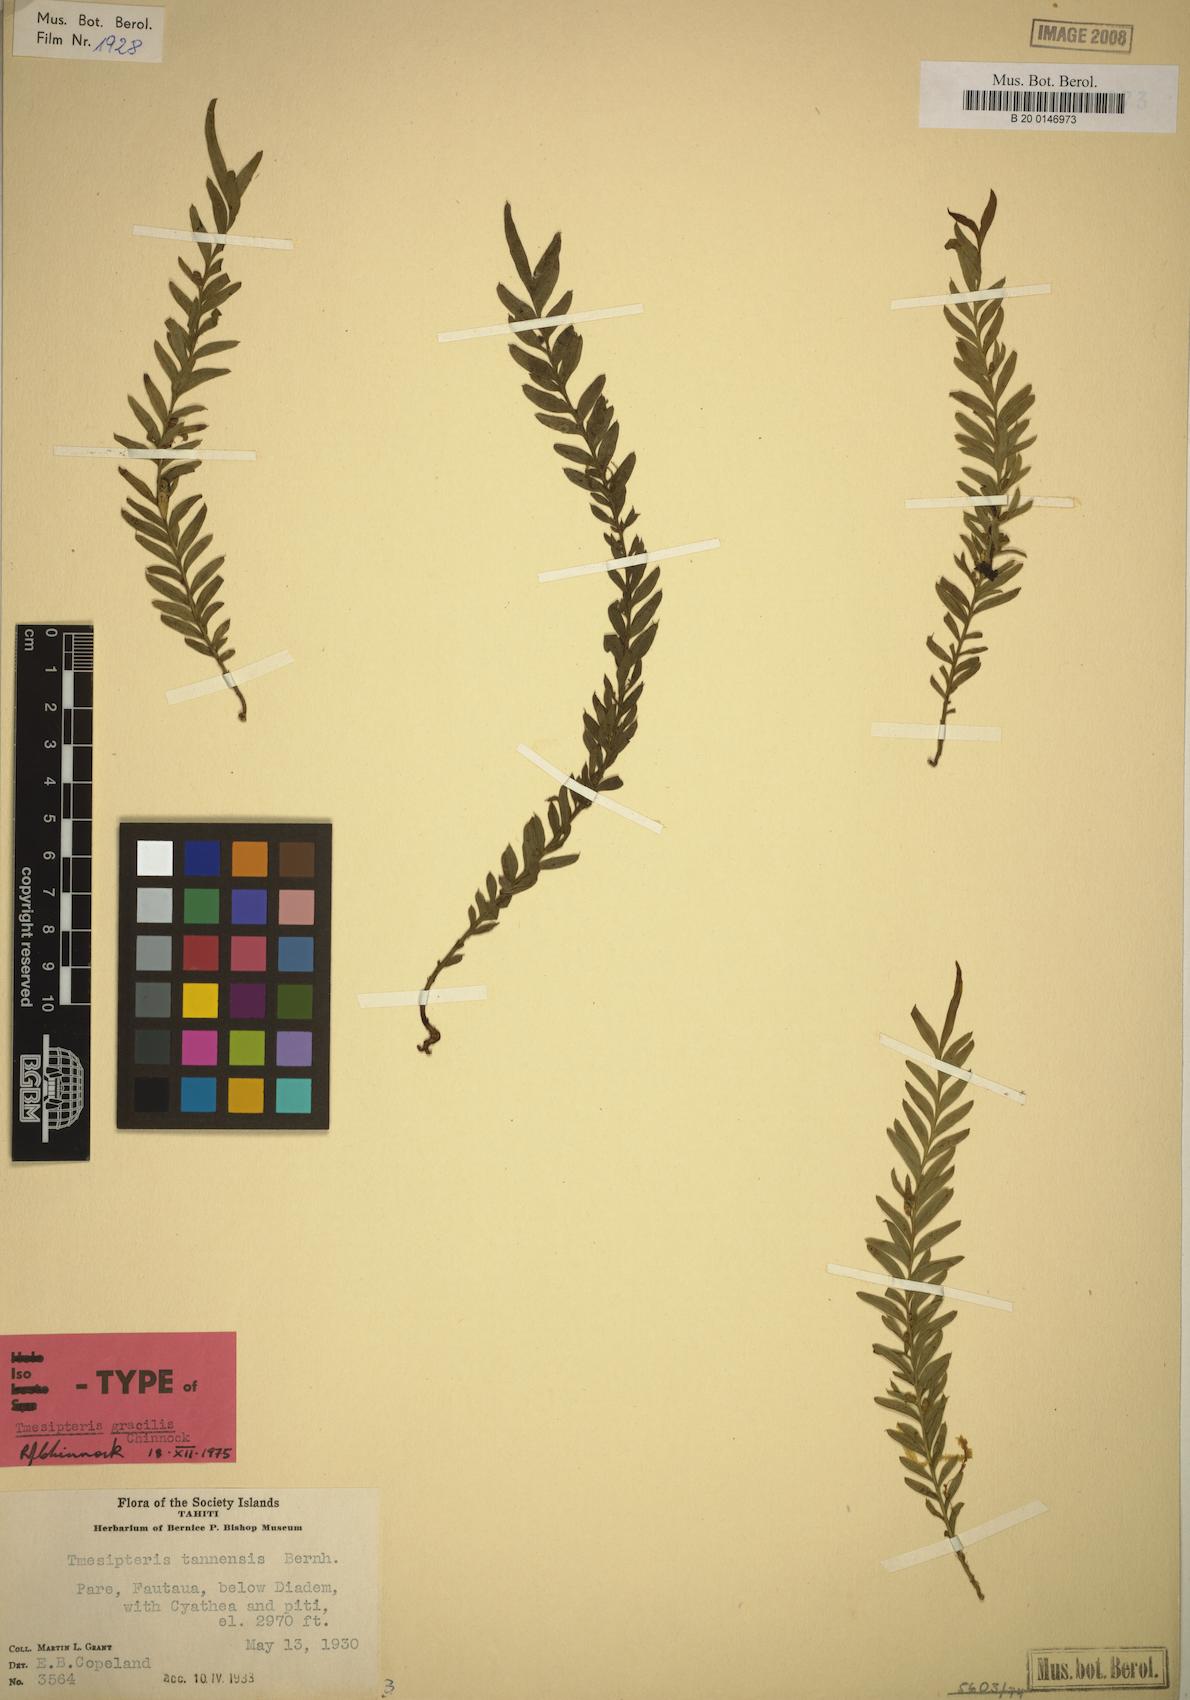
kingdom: Plantae
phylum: Tracheophyta
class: Polypodiopsida
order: Psilotales
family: Psilotaceae
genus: Tmesipteris
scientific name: Tmesipteris gracilis
